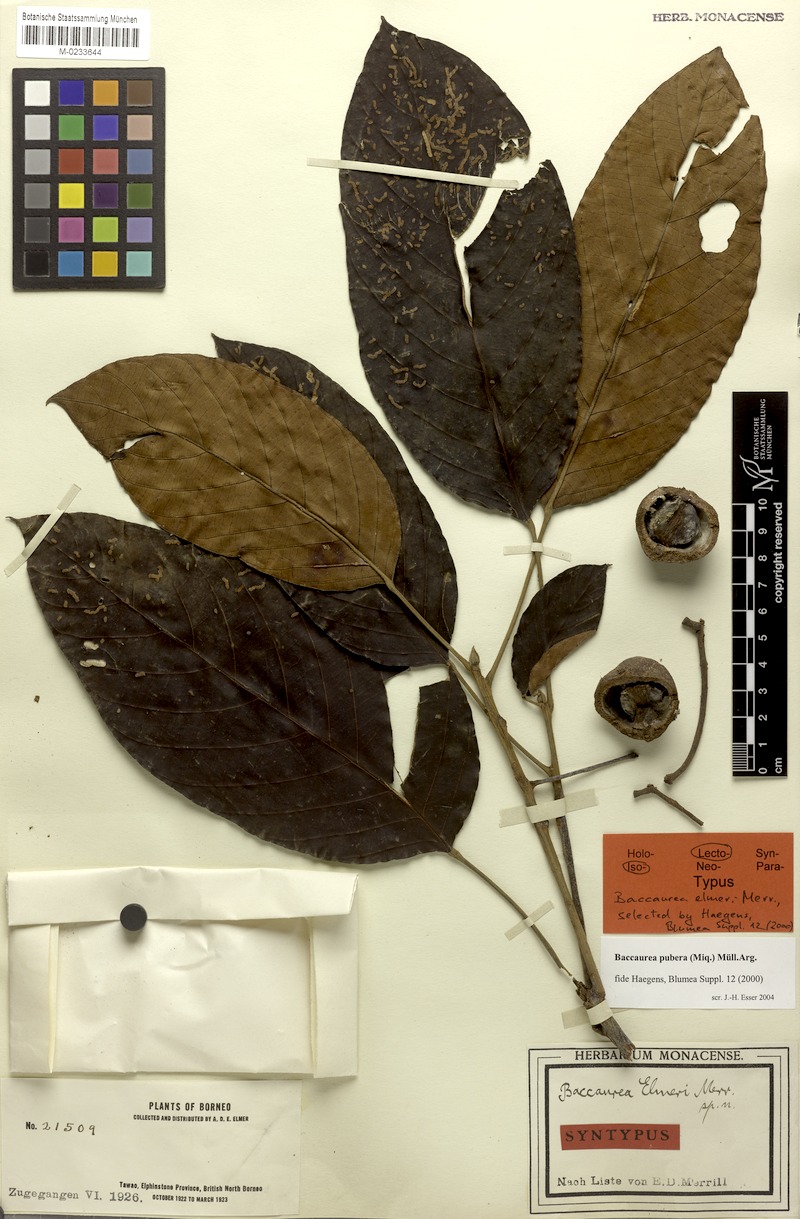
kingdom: Plantae
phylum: Tracheophyta
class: Magnoliopsida
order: Malpighiales
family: Phyllanthaceae
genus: Baccaurea
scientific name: Baccaurea pubera
